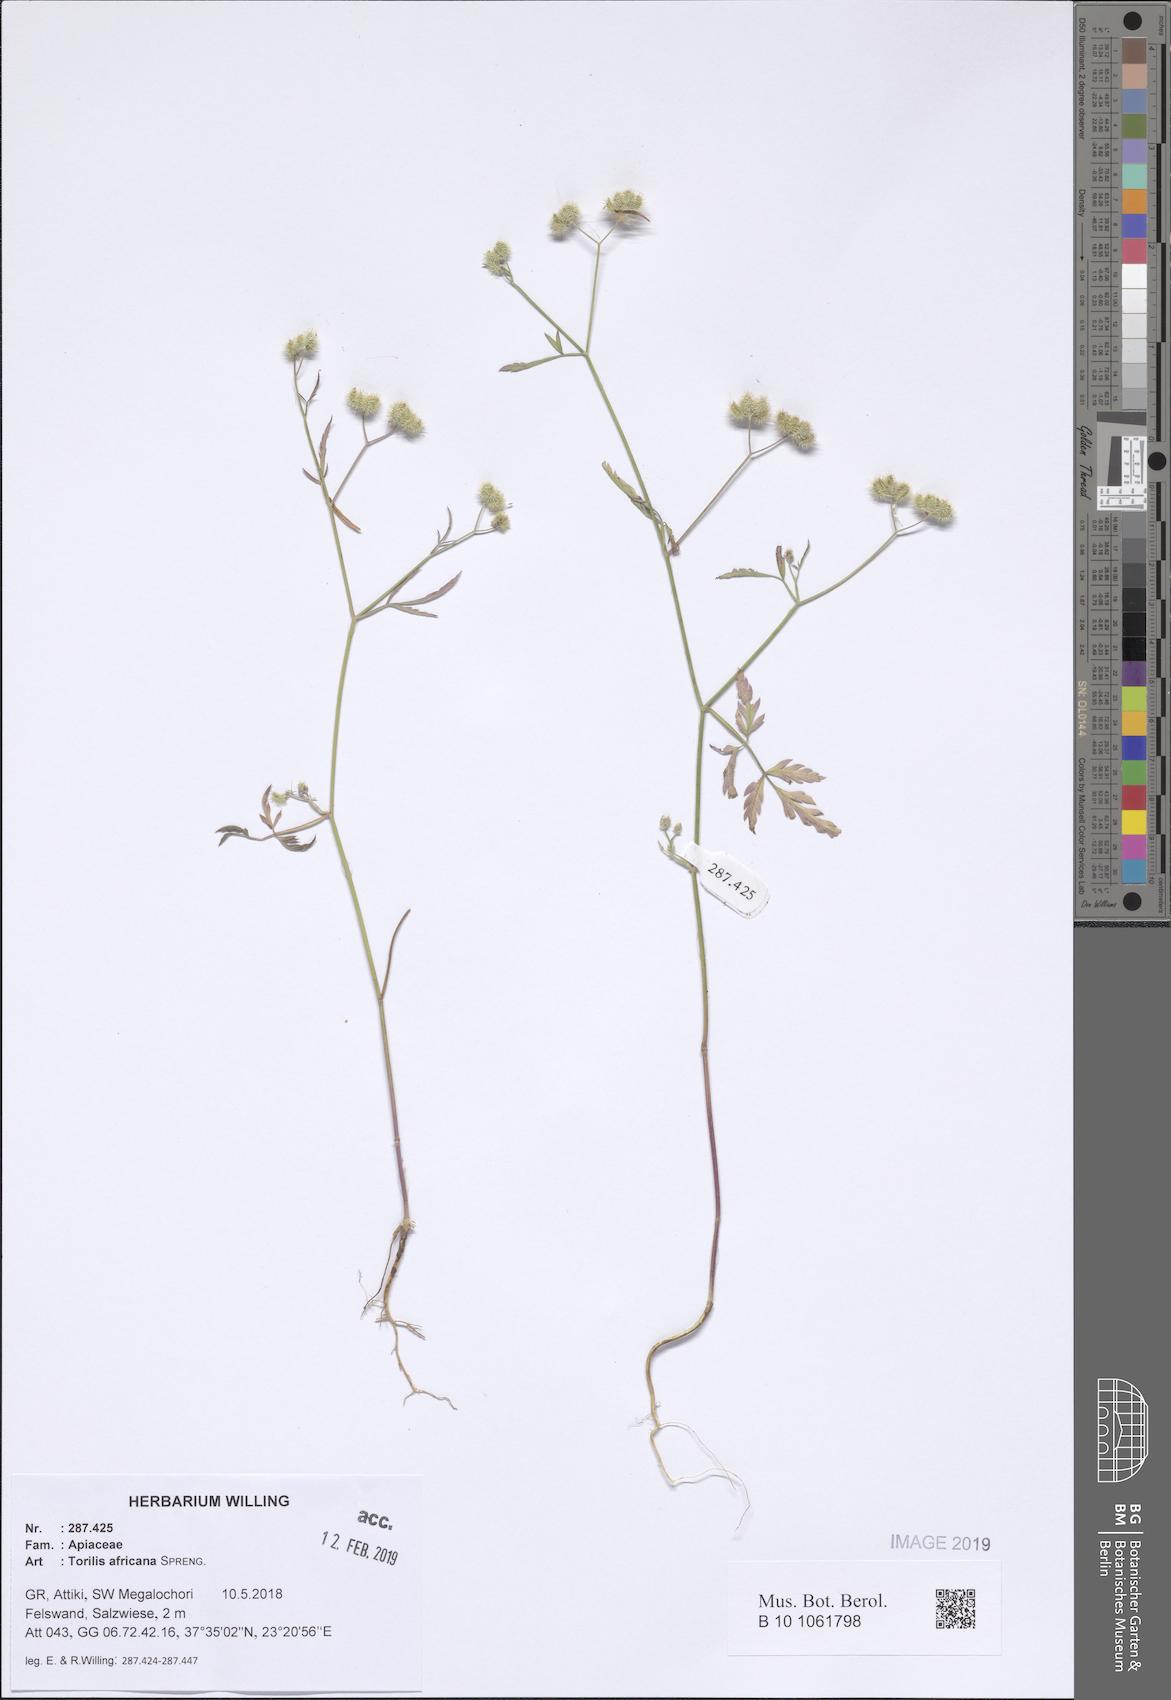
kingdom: Plantae
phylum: Tracheophyta
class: Magnoliopsida
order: Apiales
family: Apiaceae
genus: Torilis
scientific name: Torilis africana
